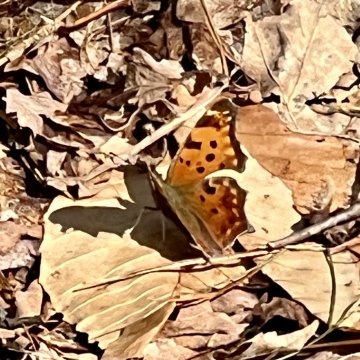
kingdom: Animalia
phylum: Arthropoda
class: Insecta
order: Lepidoptera
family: Nymphalidae
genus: Polygonia
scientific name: Polygonia comma
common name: Eastern Comma
